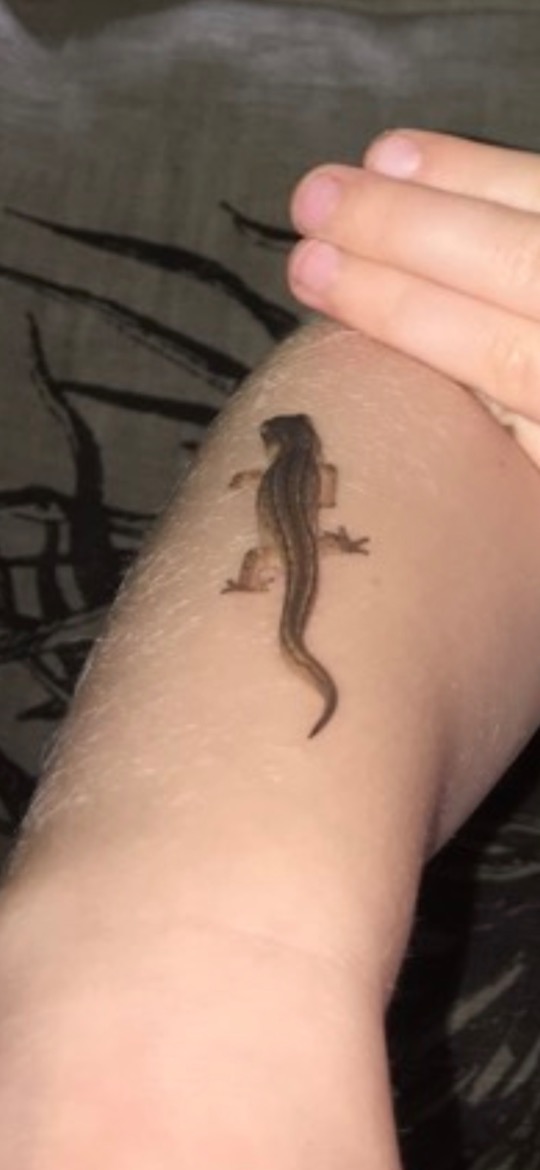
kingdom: Animalia
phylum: Chordata
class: Amphibia
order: Caudata
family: Salamandridae
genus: Lissotriton
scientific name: Lissotriton vulgaris
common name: Lille vandsalamander
